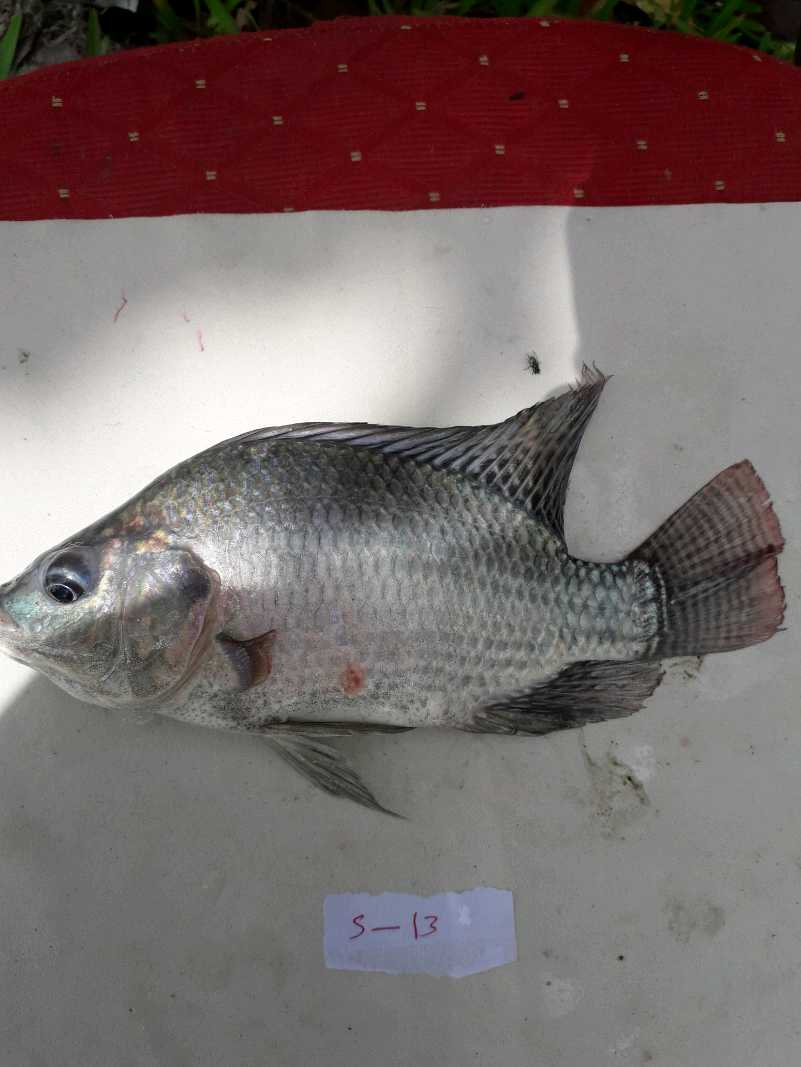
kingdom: Animalia
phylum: Chordata
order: Perciformes
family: Cichlidae
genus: Oreochromis
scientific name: Oreochromis niloticus
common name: Nile tilapia
